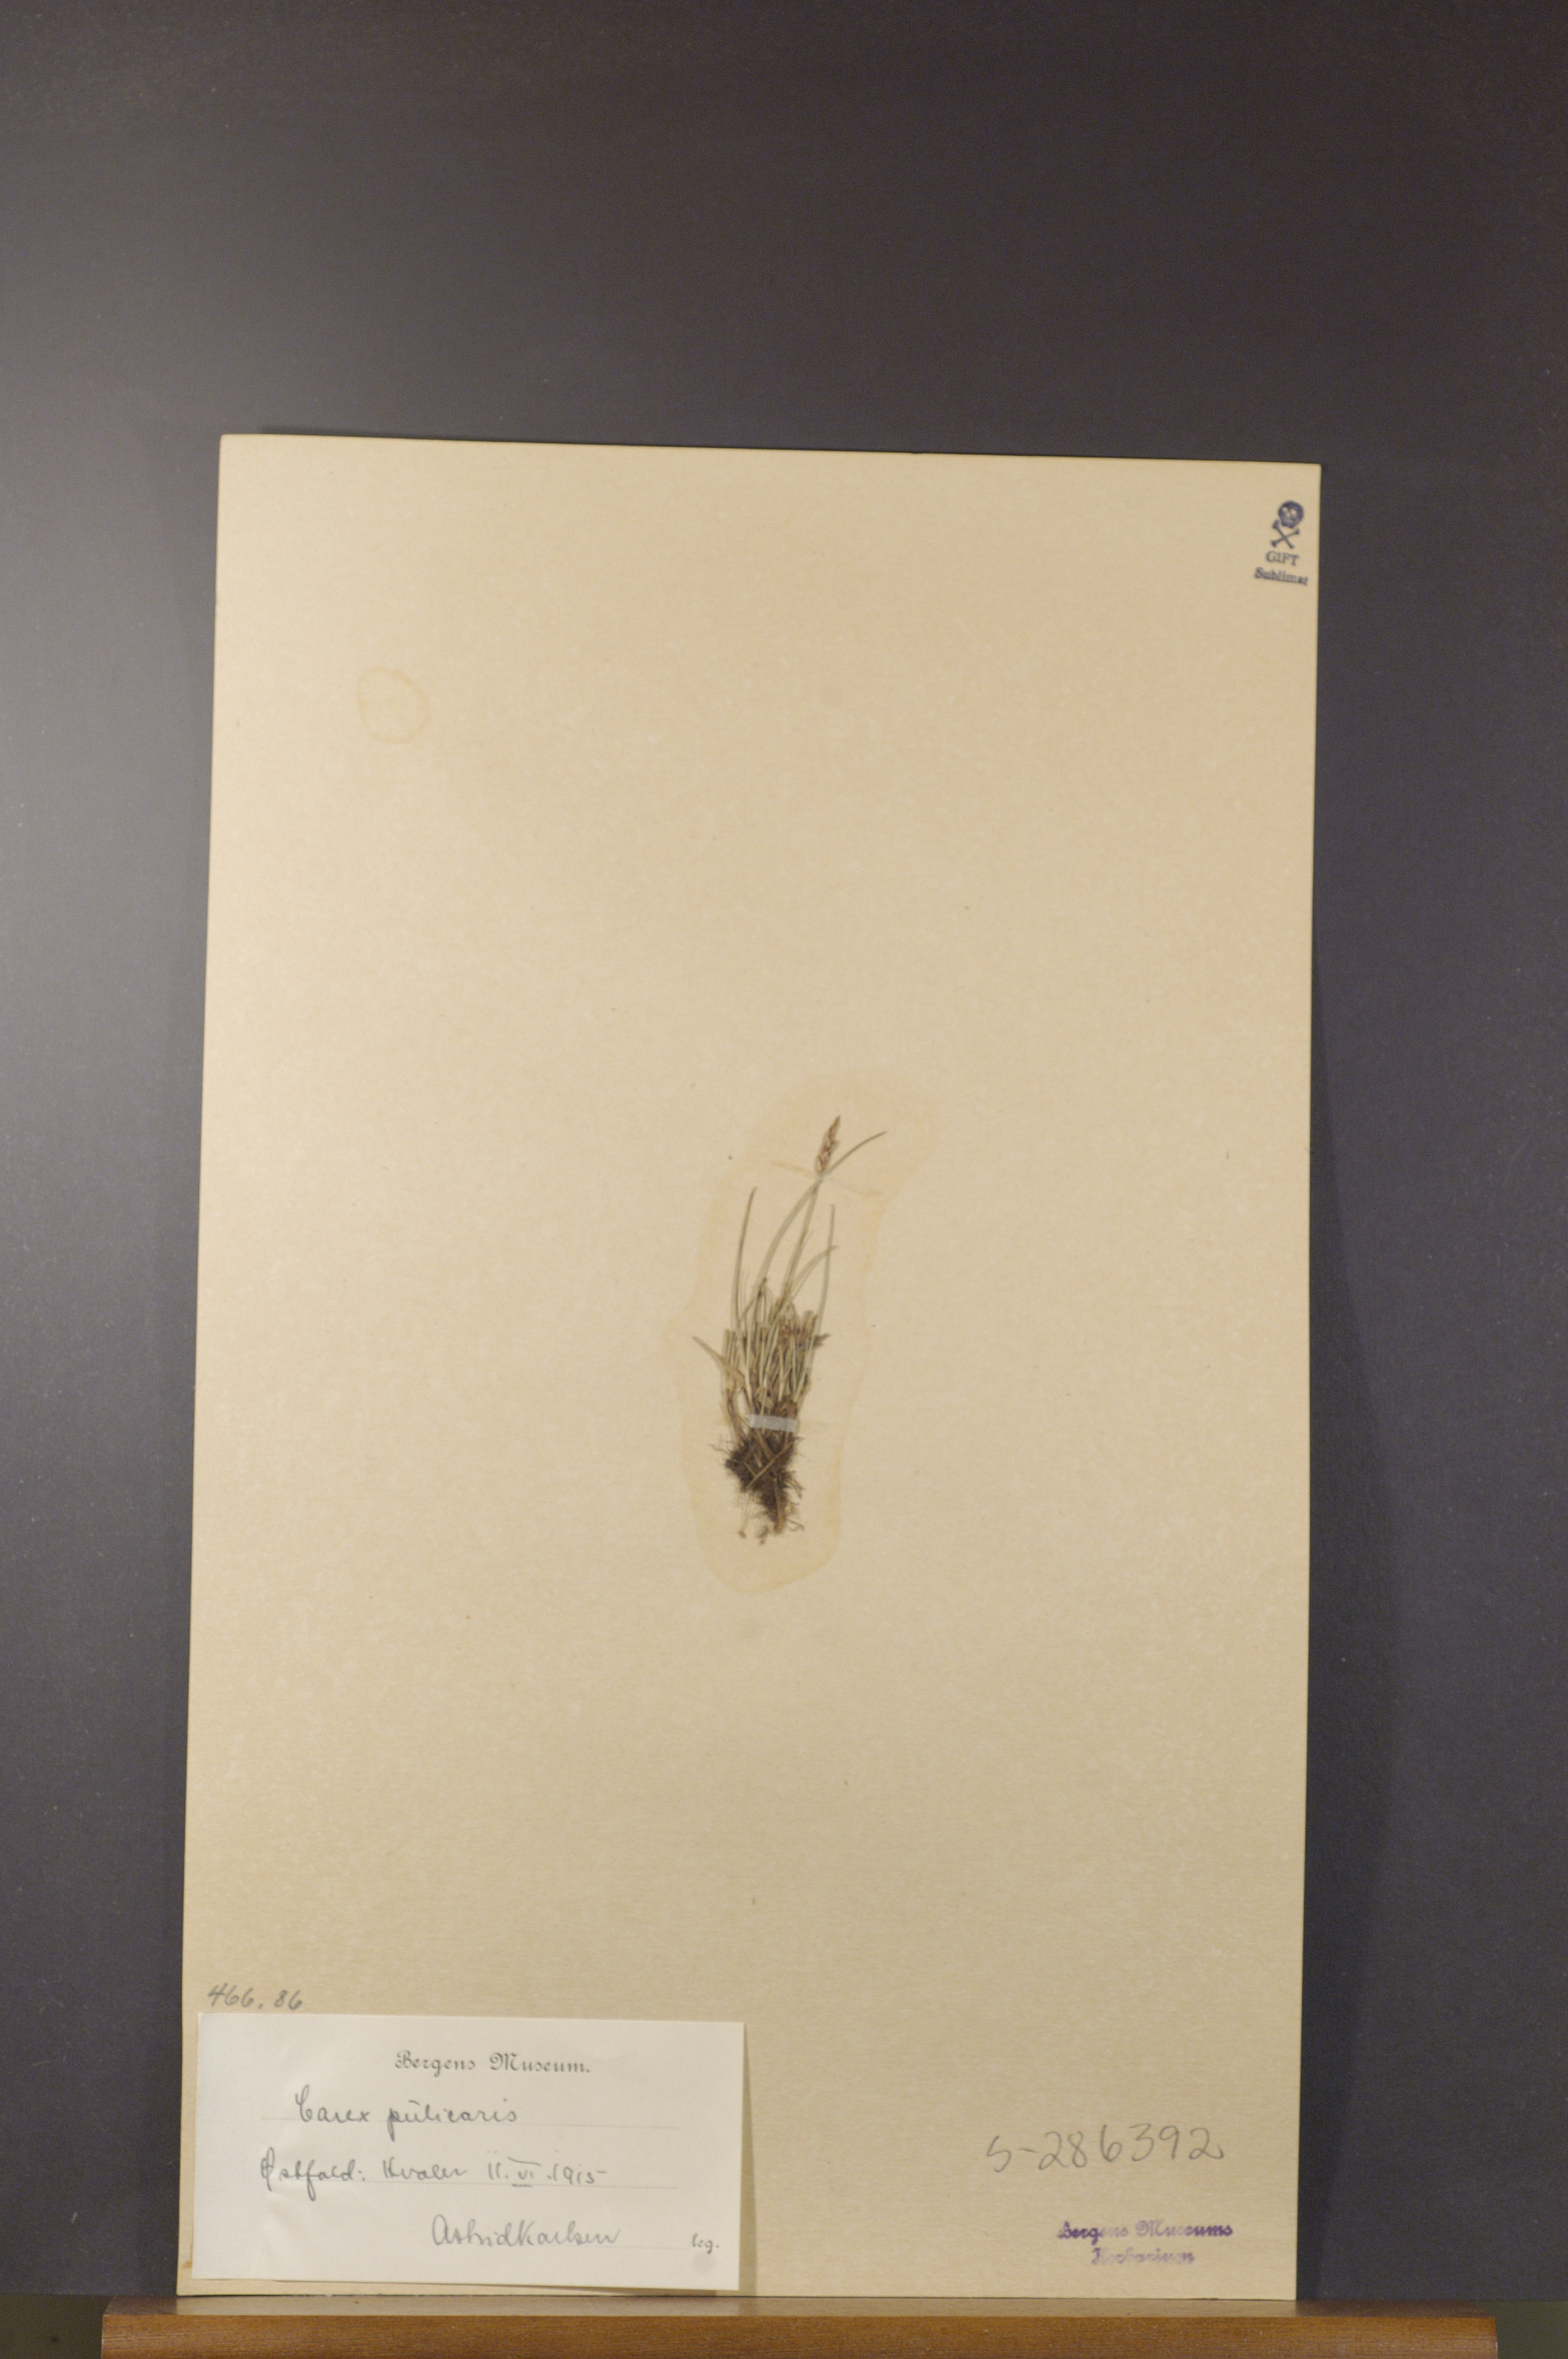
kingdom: Plantae
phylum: Tracheophyta
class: Liliopsida
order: Poales
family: Cyperaceae
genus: Carex
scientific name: Carex pulicaris
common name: Flea sedge
